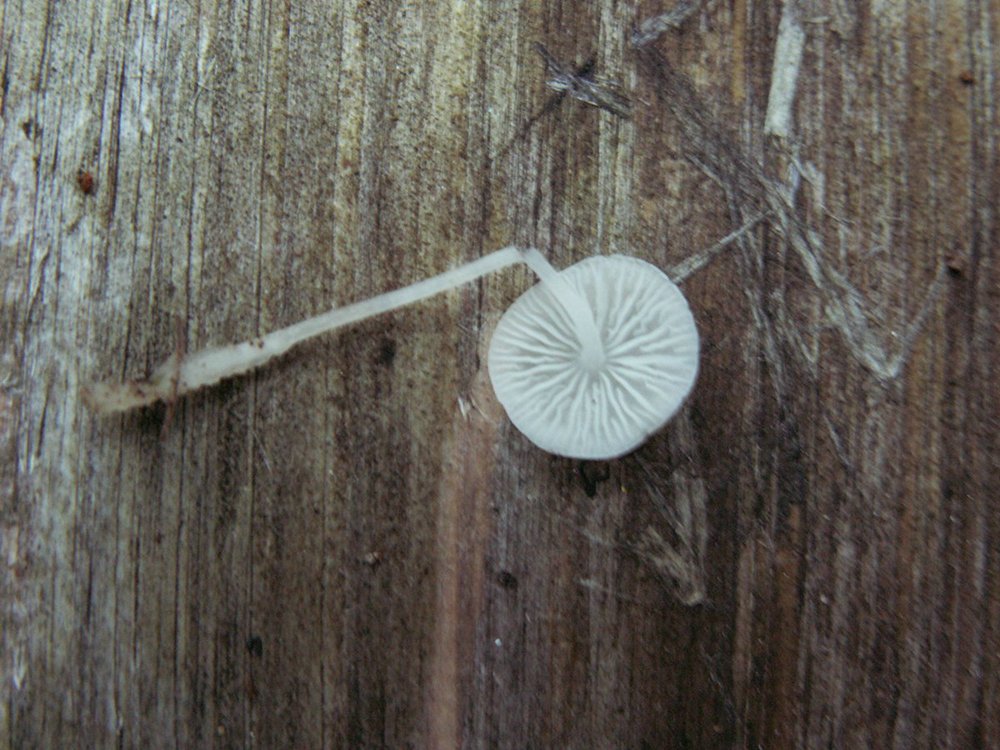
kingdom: Fungi
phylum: Basidiomycota
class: Agaricomycetes
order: Agaricales
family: Mycenaceae
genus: Hemimycena
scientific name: Hemimycena lactea
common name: mælkehvid huesvamp
